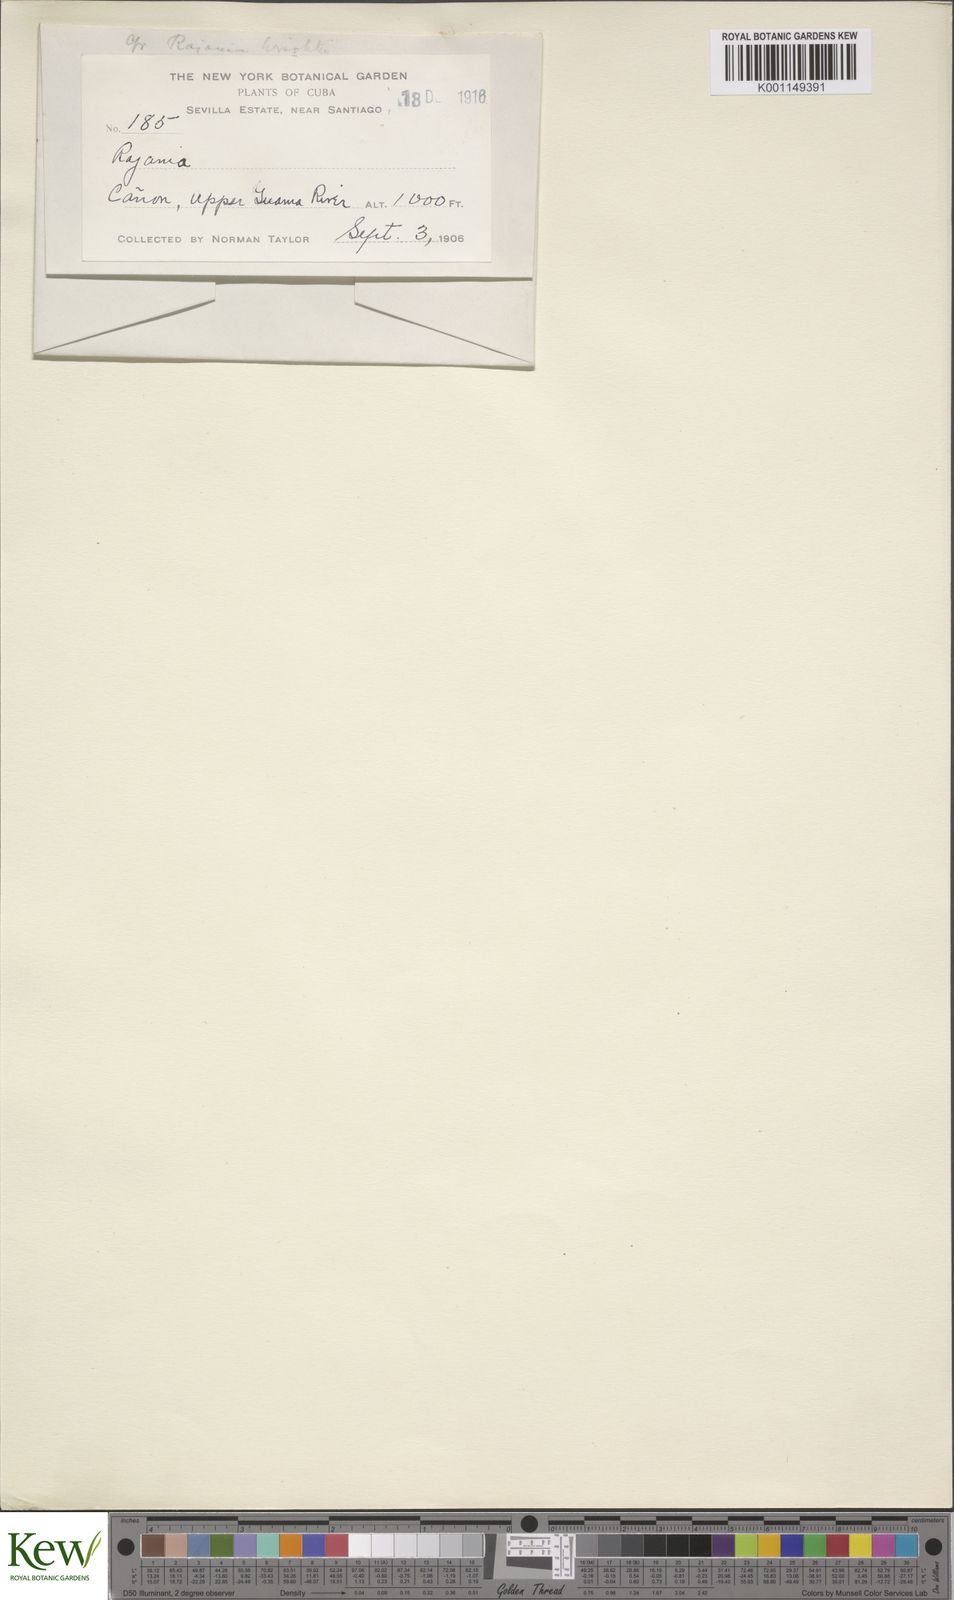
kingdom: Plantae
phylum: Tracheophyta
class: Liliopsida
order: Dioscoreales
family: Dioscoreaceae
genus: Dioscorea
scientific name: Dioscorea
